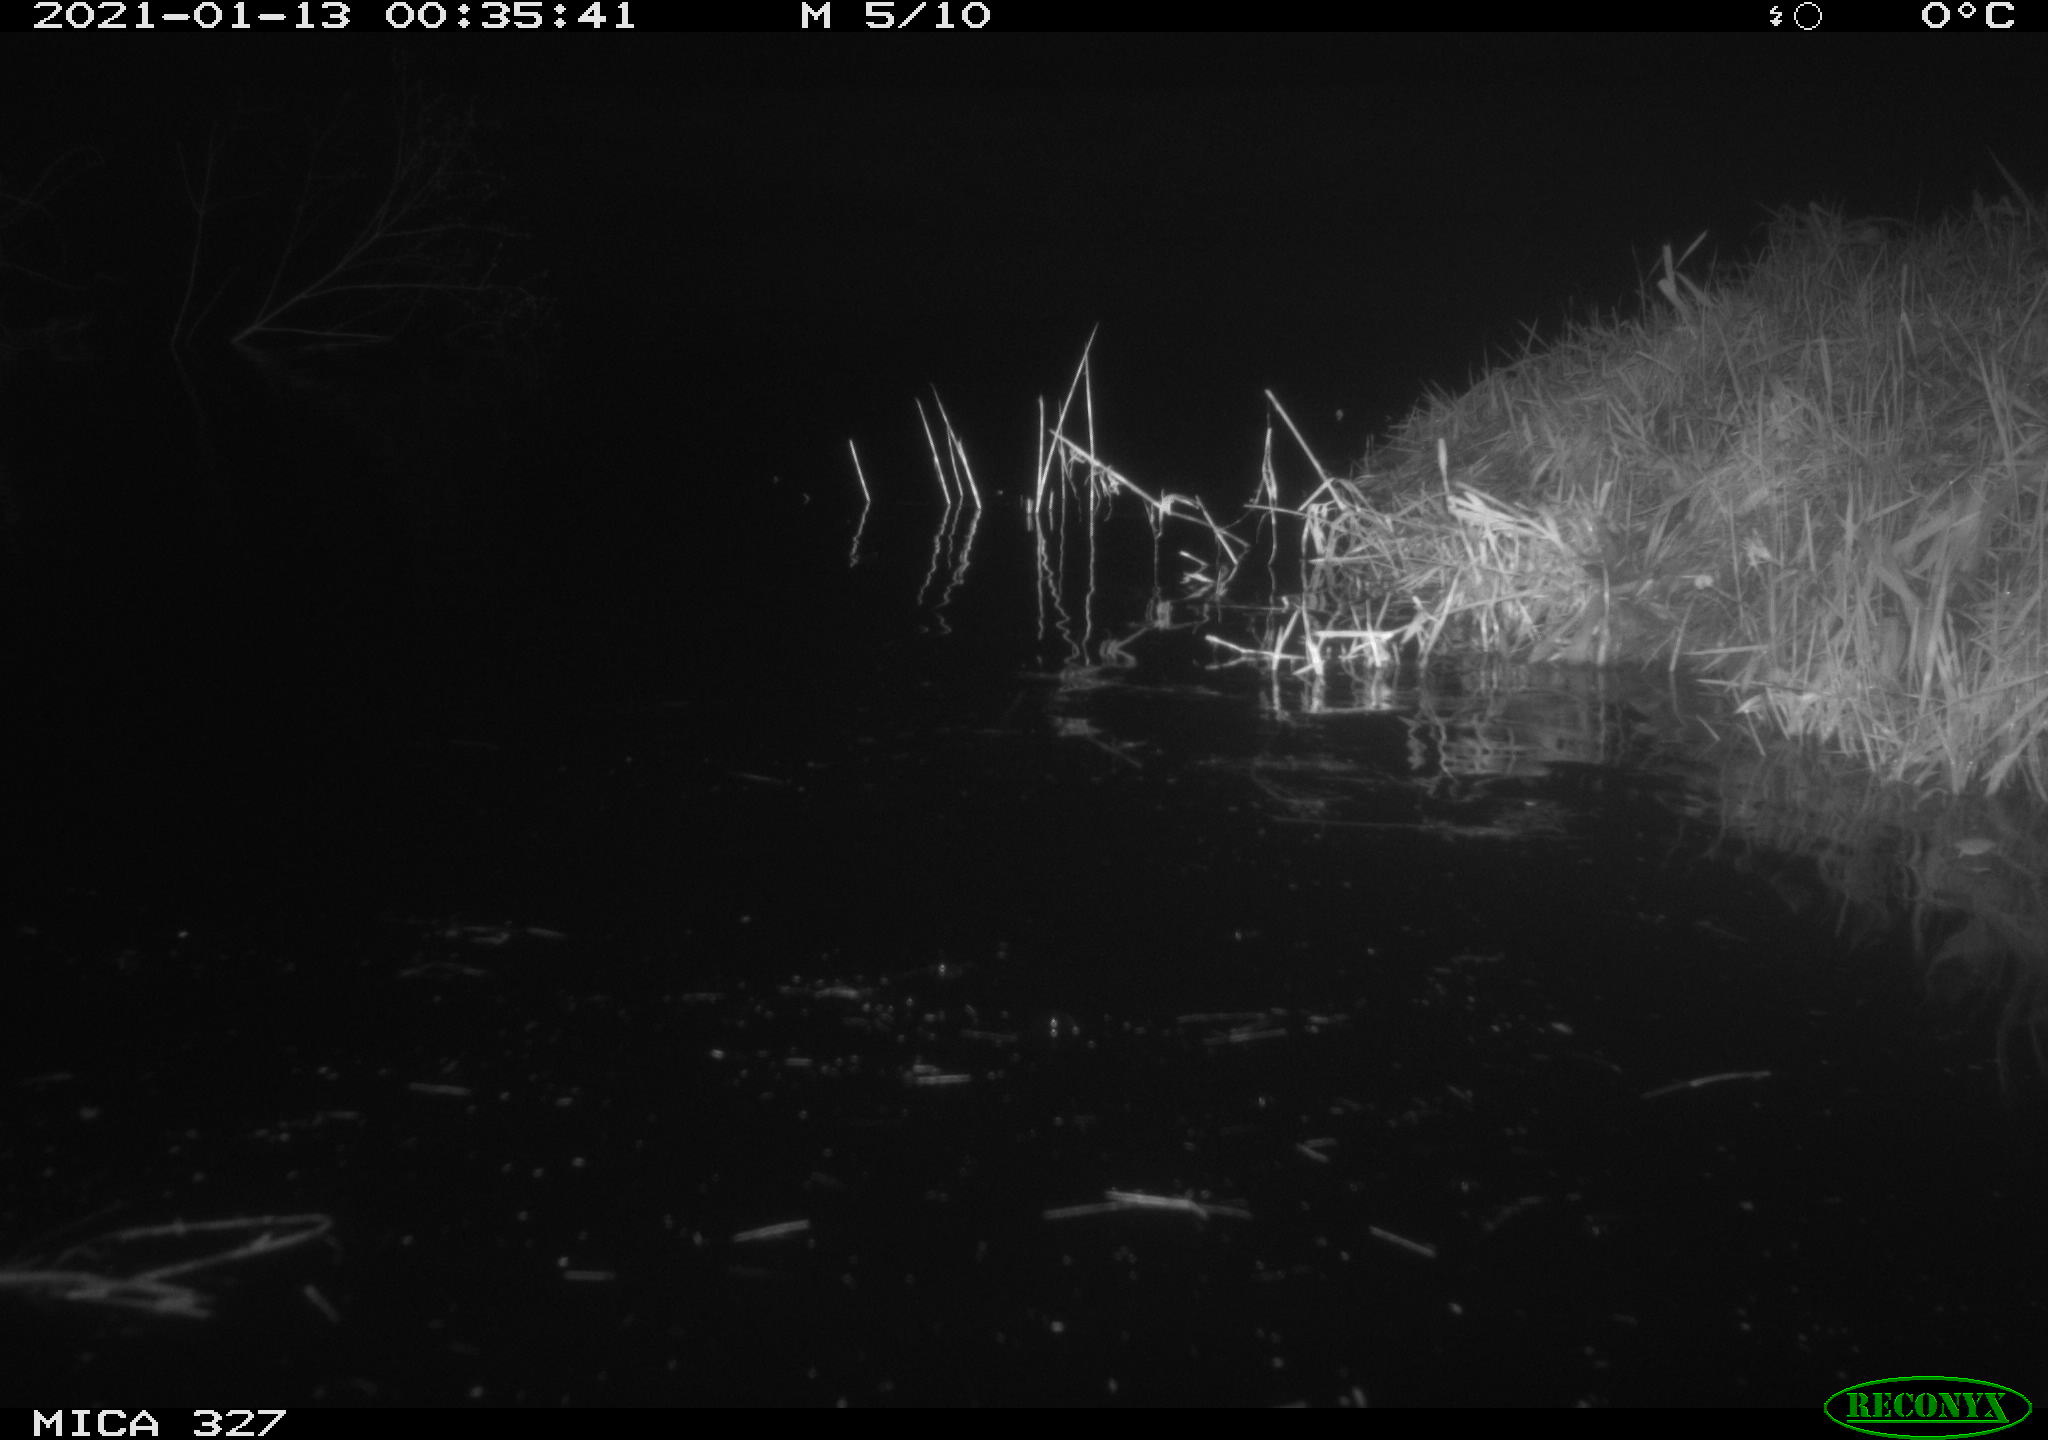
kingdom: Animalia
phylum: Chordata
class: Mammalia
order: Rodentia
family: Cricetidae
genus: Ondatra
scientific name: Ondatra zibethicus
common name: Muskrat
